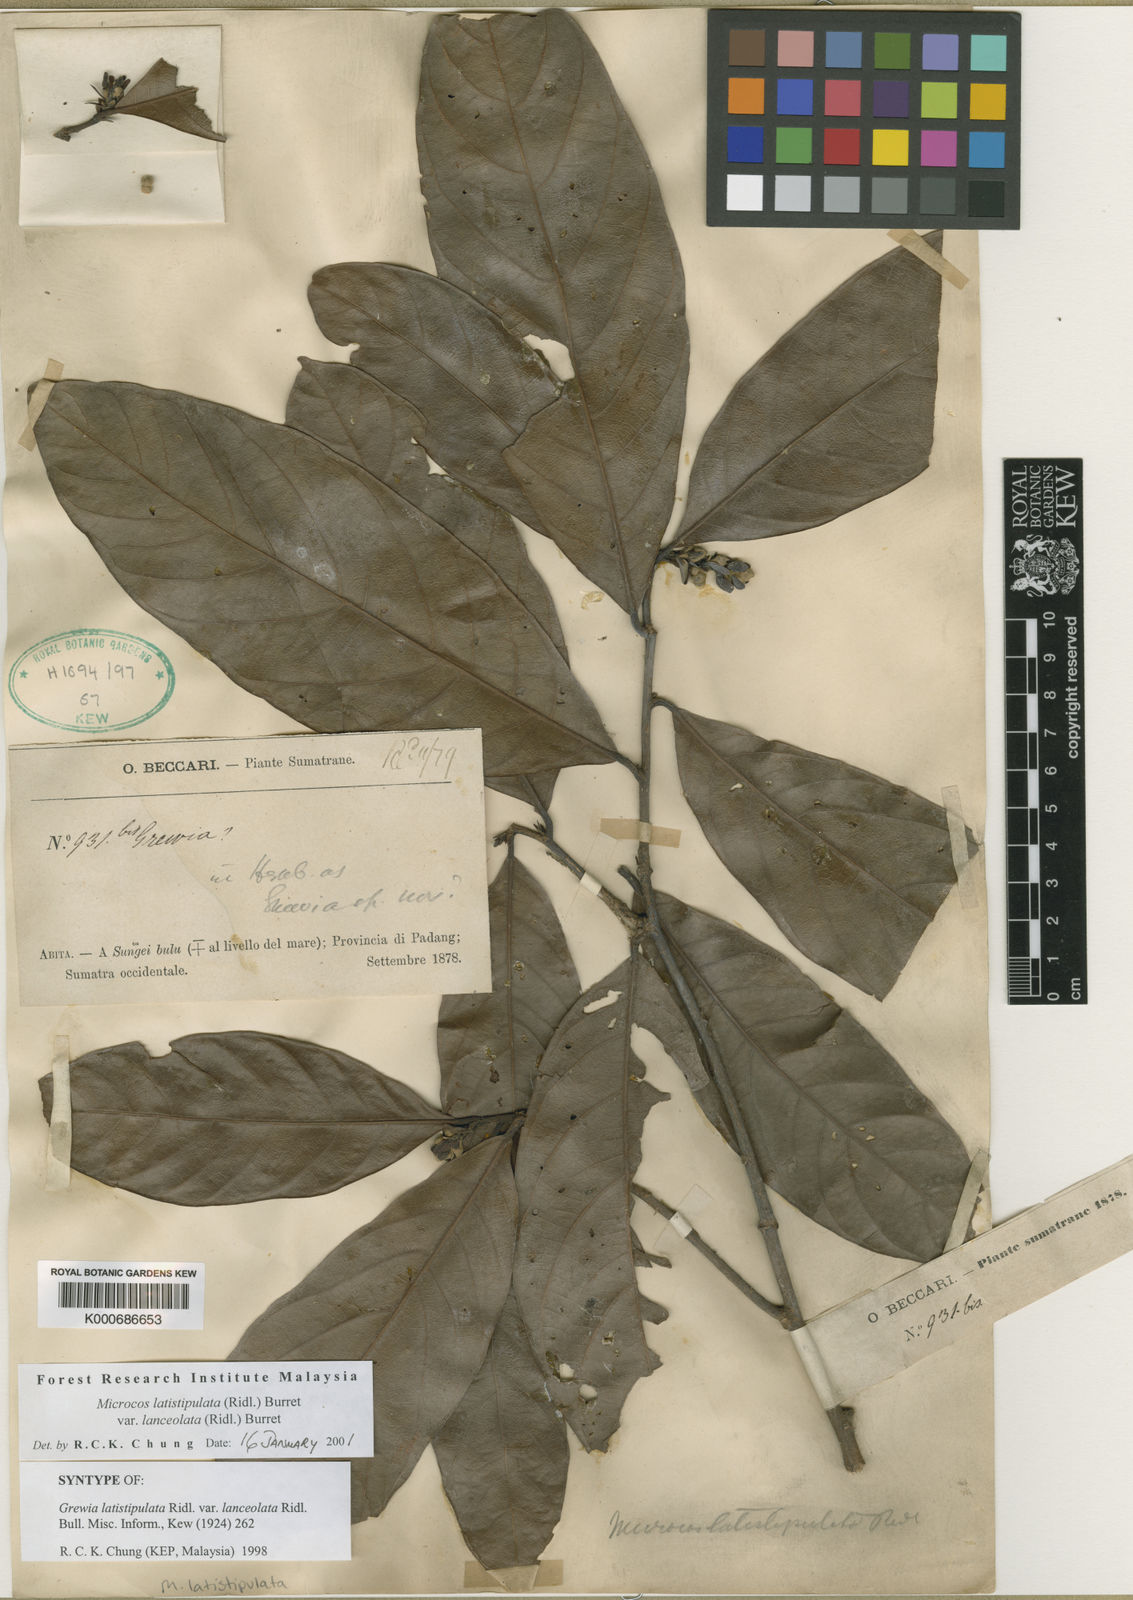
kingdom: Plantae
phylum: Tracheophyta
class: Magnoliopsida
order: Malvales
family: Malvaceae
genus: Microcos
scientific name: Microcos latistipulata
